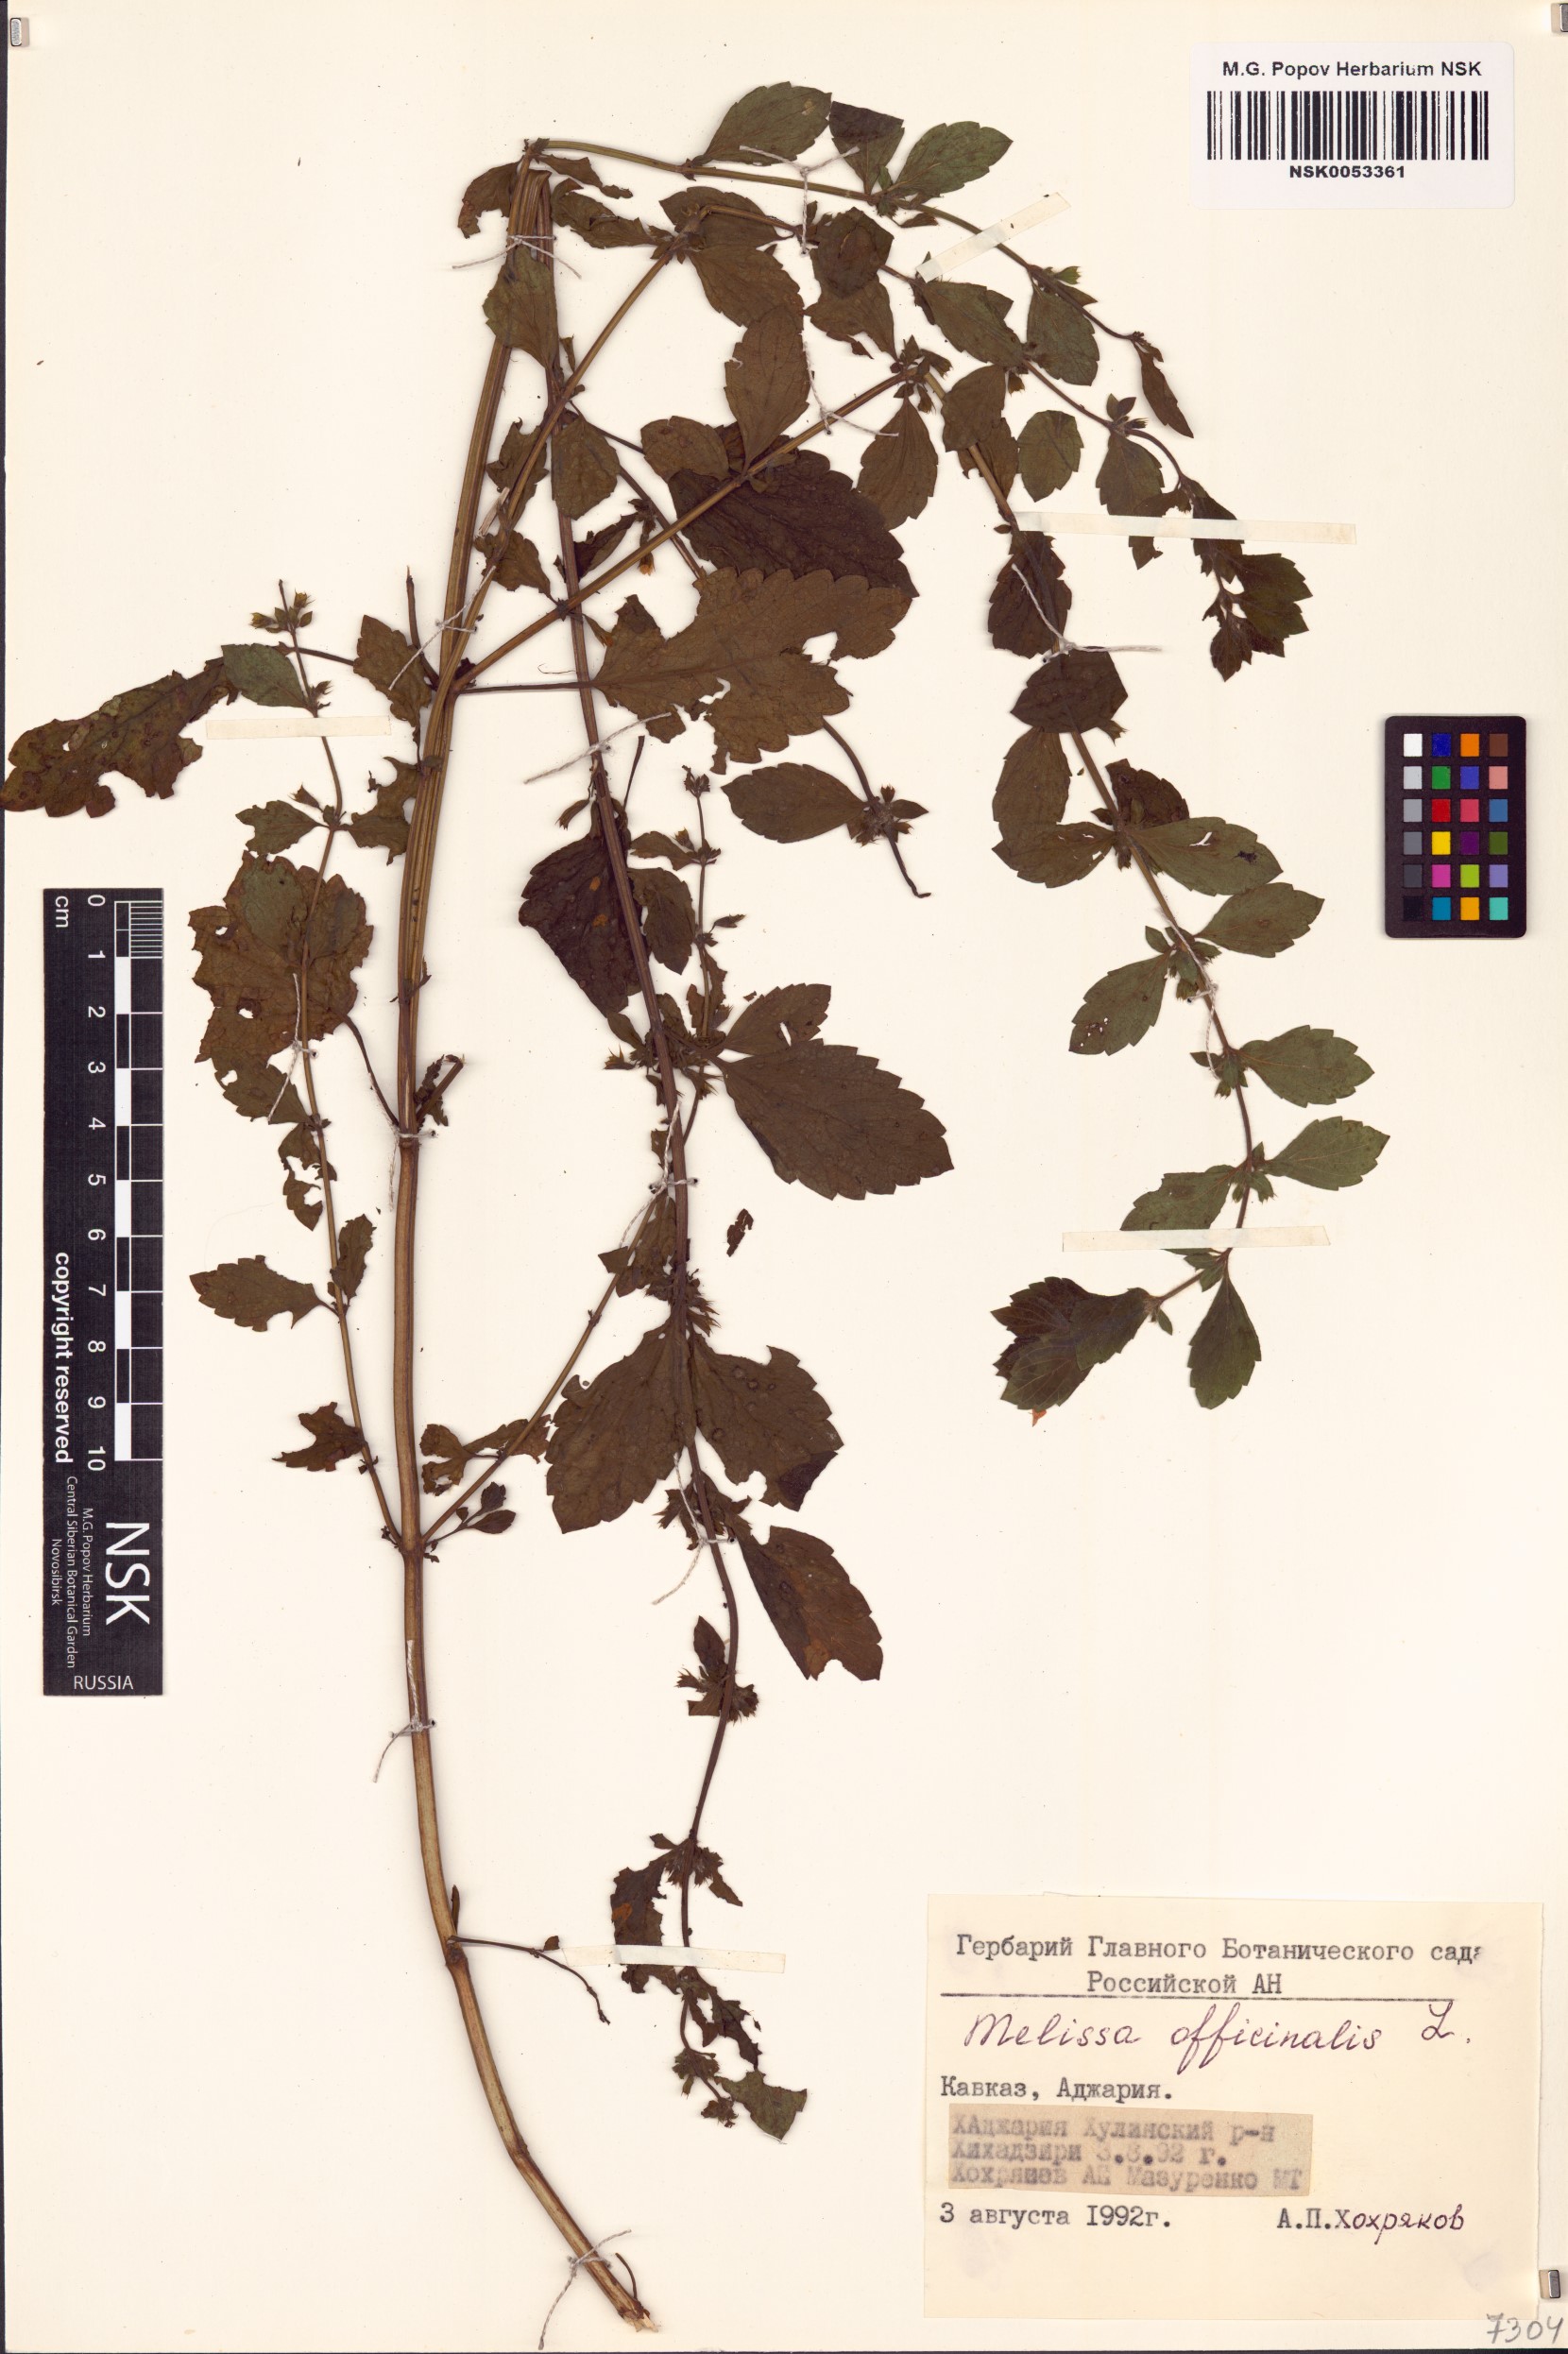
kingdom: Plantae
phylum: Tracheophyta
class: Magnoliopsida
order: Lamiales
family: Lamiaceae
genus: Melissa
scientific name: Melissa officinalis
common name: Balm
